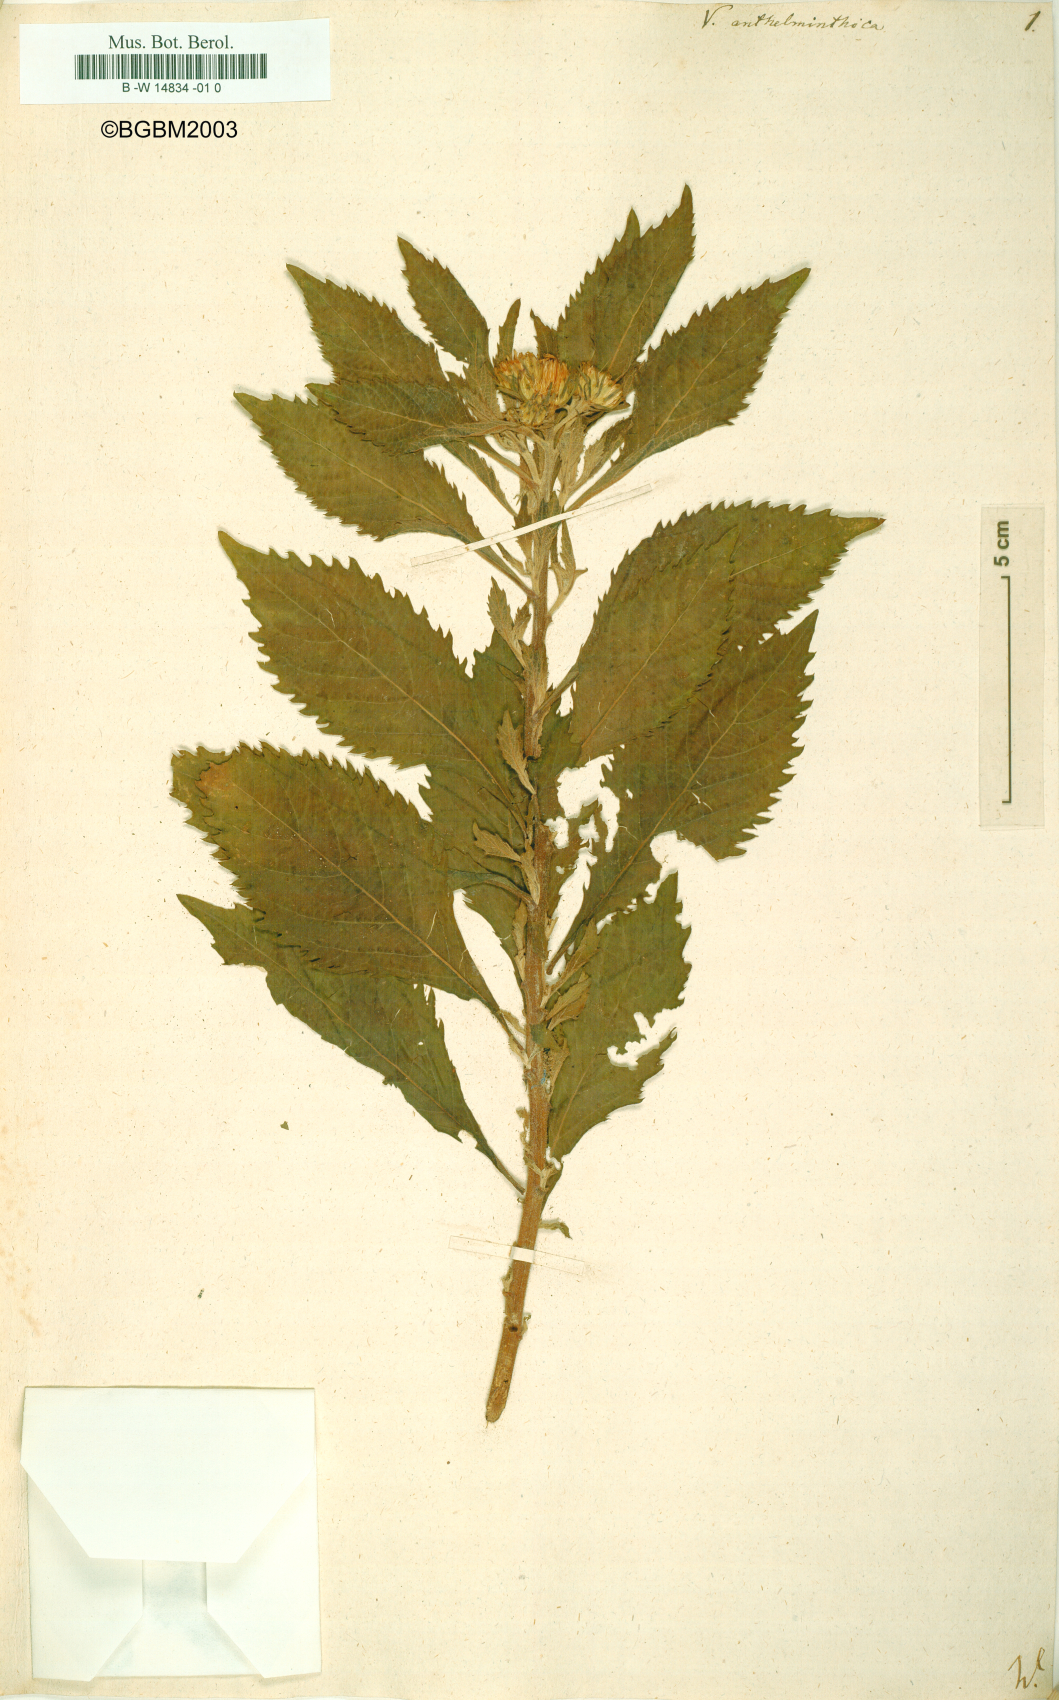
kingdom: Plantae
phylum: Tracheophyta
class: Magnoliopsida
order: Asterales
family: Asteraceae
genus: Baccharoides
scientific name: Baccharoides anthelmintica
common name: Kinka-oil
